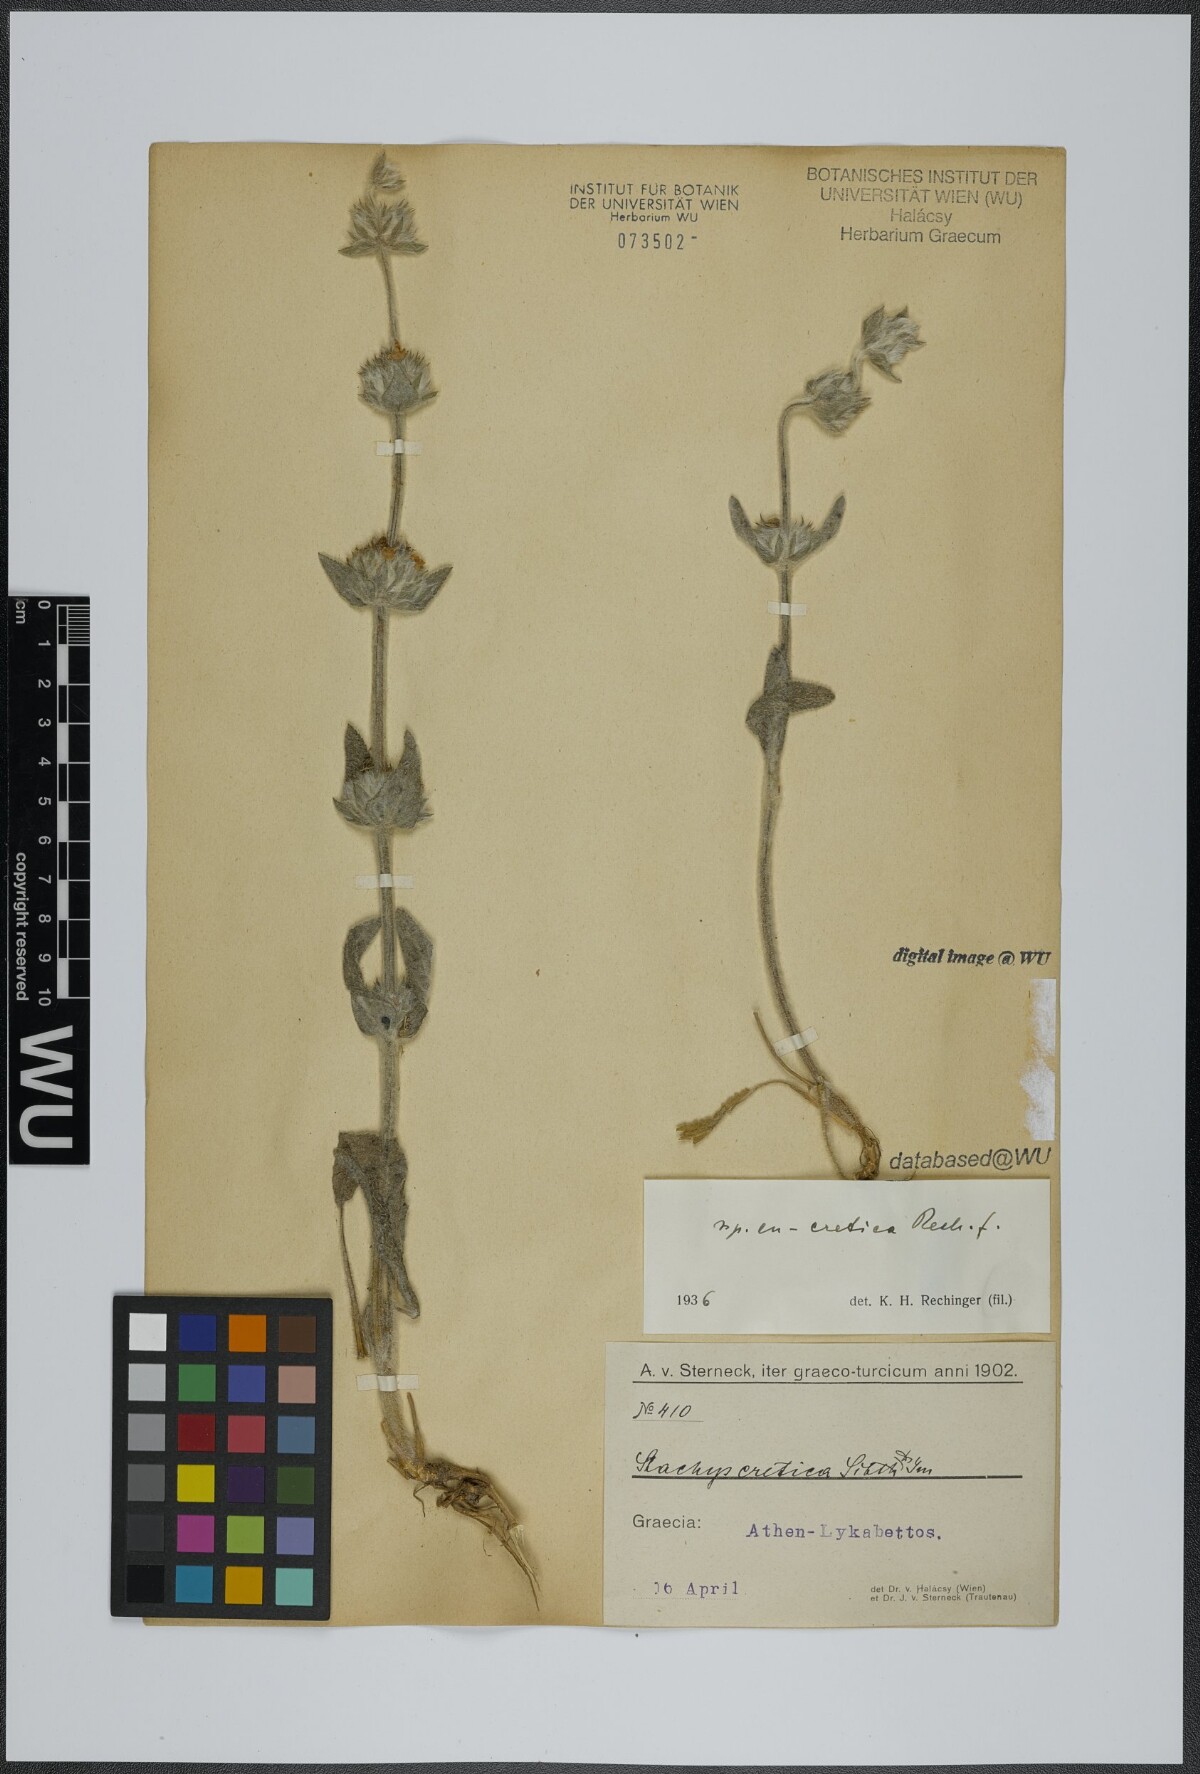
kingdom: Plantae
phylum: Tracheophyta
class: Magnoliopsida
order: Lamiales
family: Lamiaceae
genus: Stachys
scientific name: Stachys cretica
